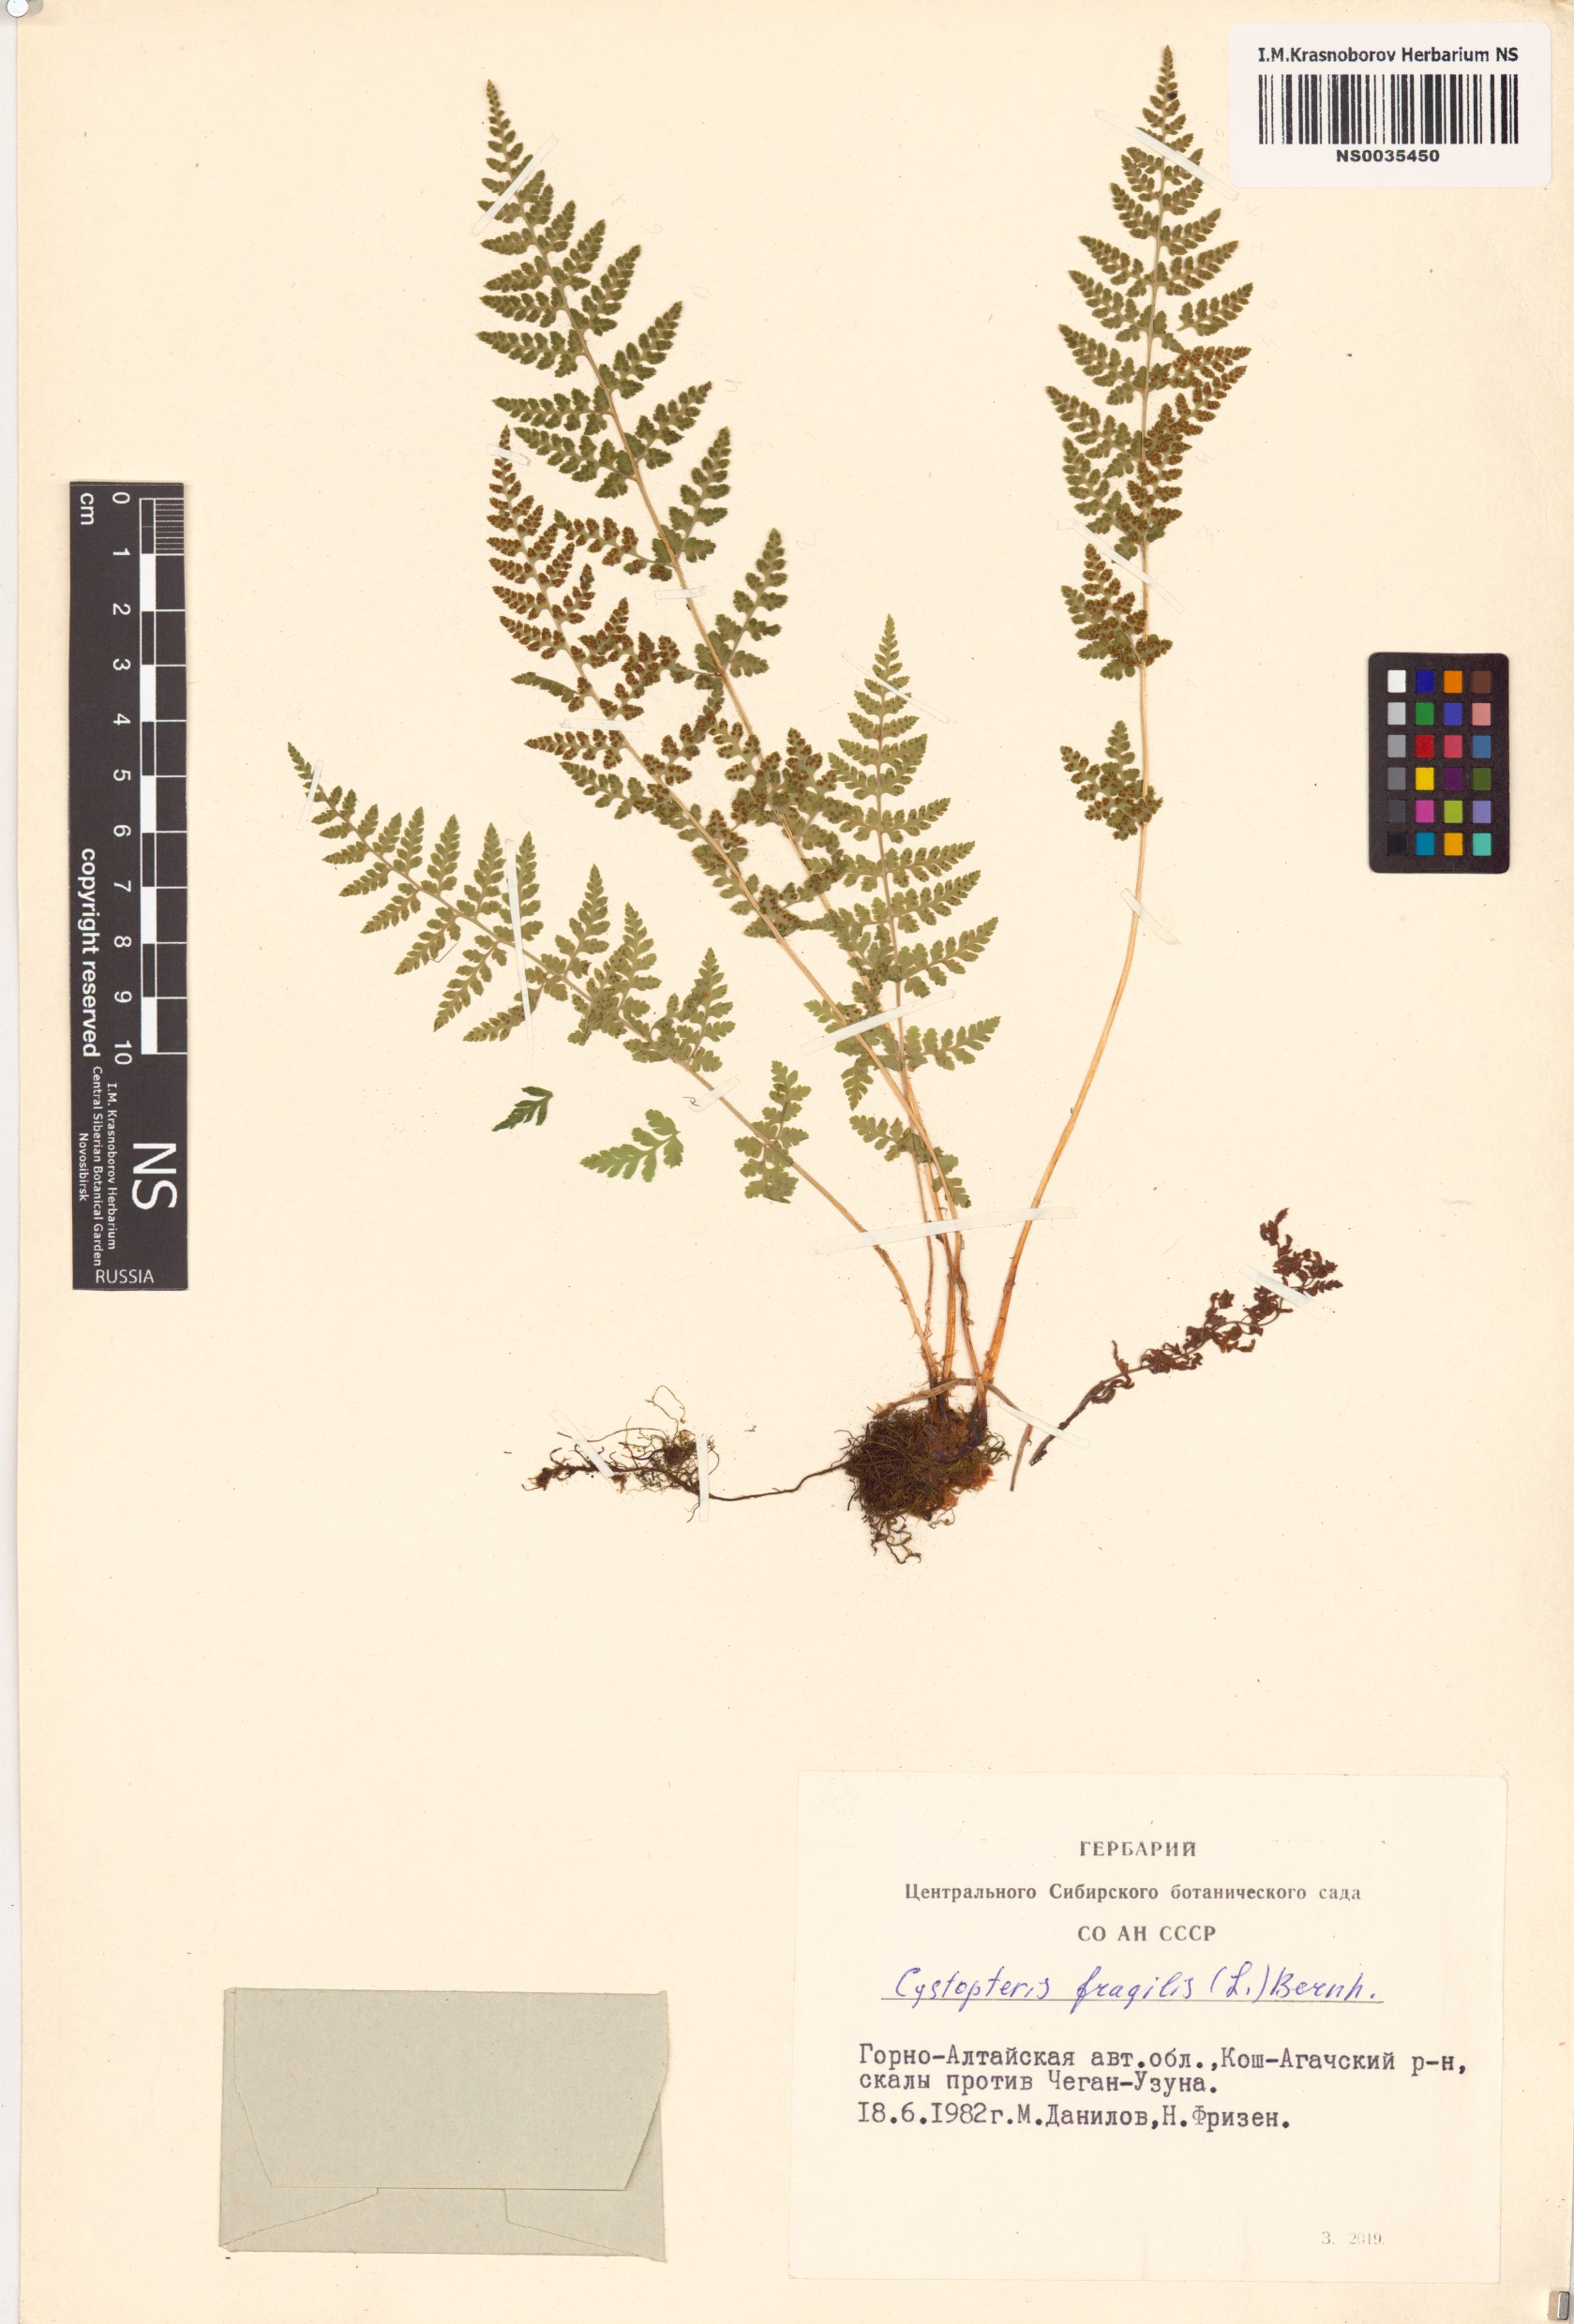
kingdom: Plantae
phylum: Tracheophyta
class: Polypodiopsida
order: Polypodiales
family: Cystopteridaceae
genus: Cystopteris
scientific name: Cystopteris fragilis
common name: Brittle bladder fern
